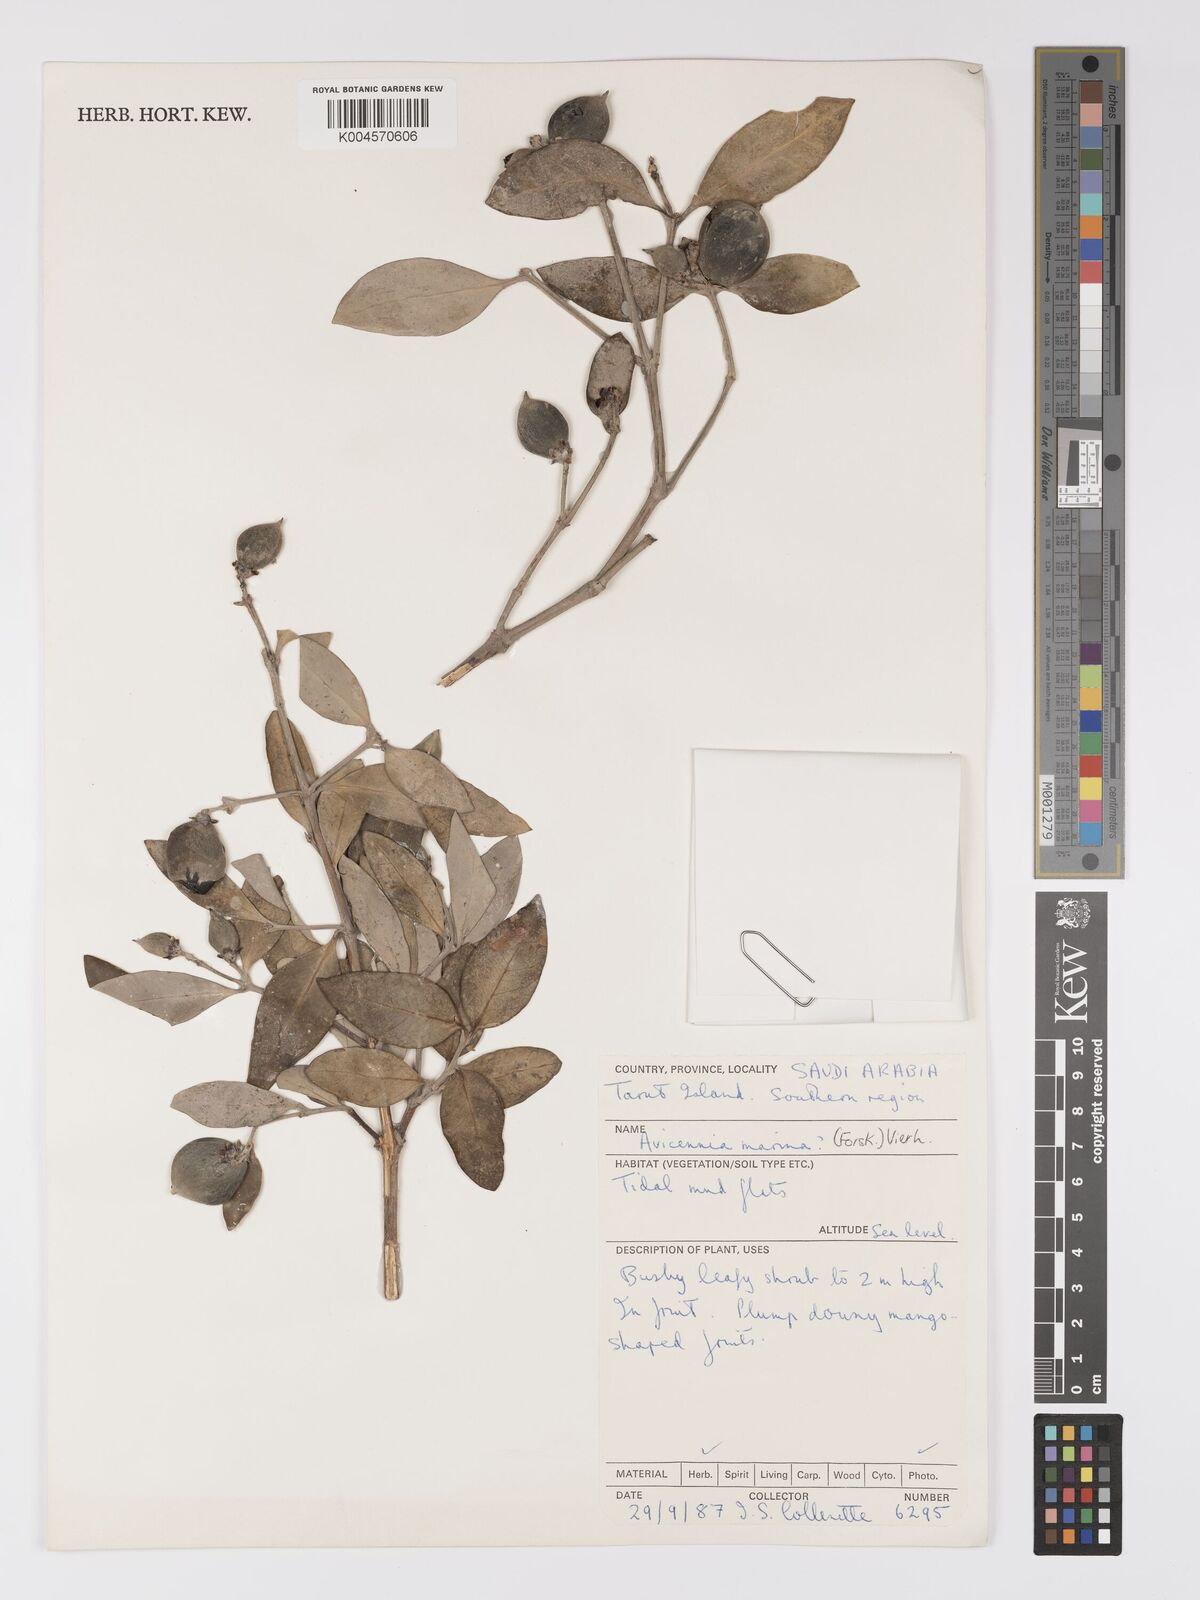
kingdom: Plantae
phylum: Tracheophyta
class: Magnoliopsida
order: Lamiales
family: Acanthaceae
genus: Avicennia
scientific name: Avicennia marina
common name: Gray mangrove
